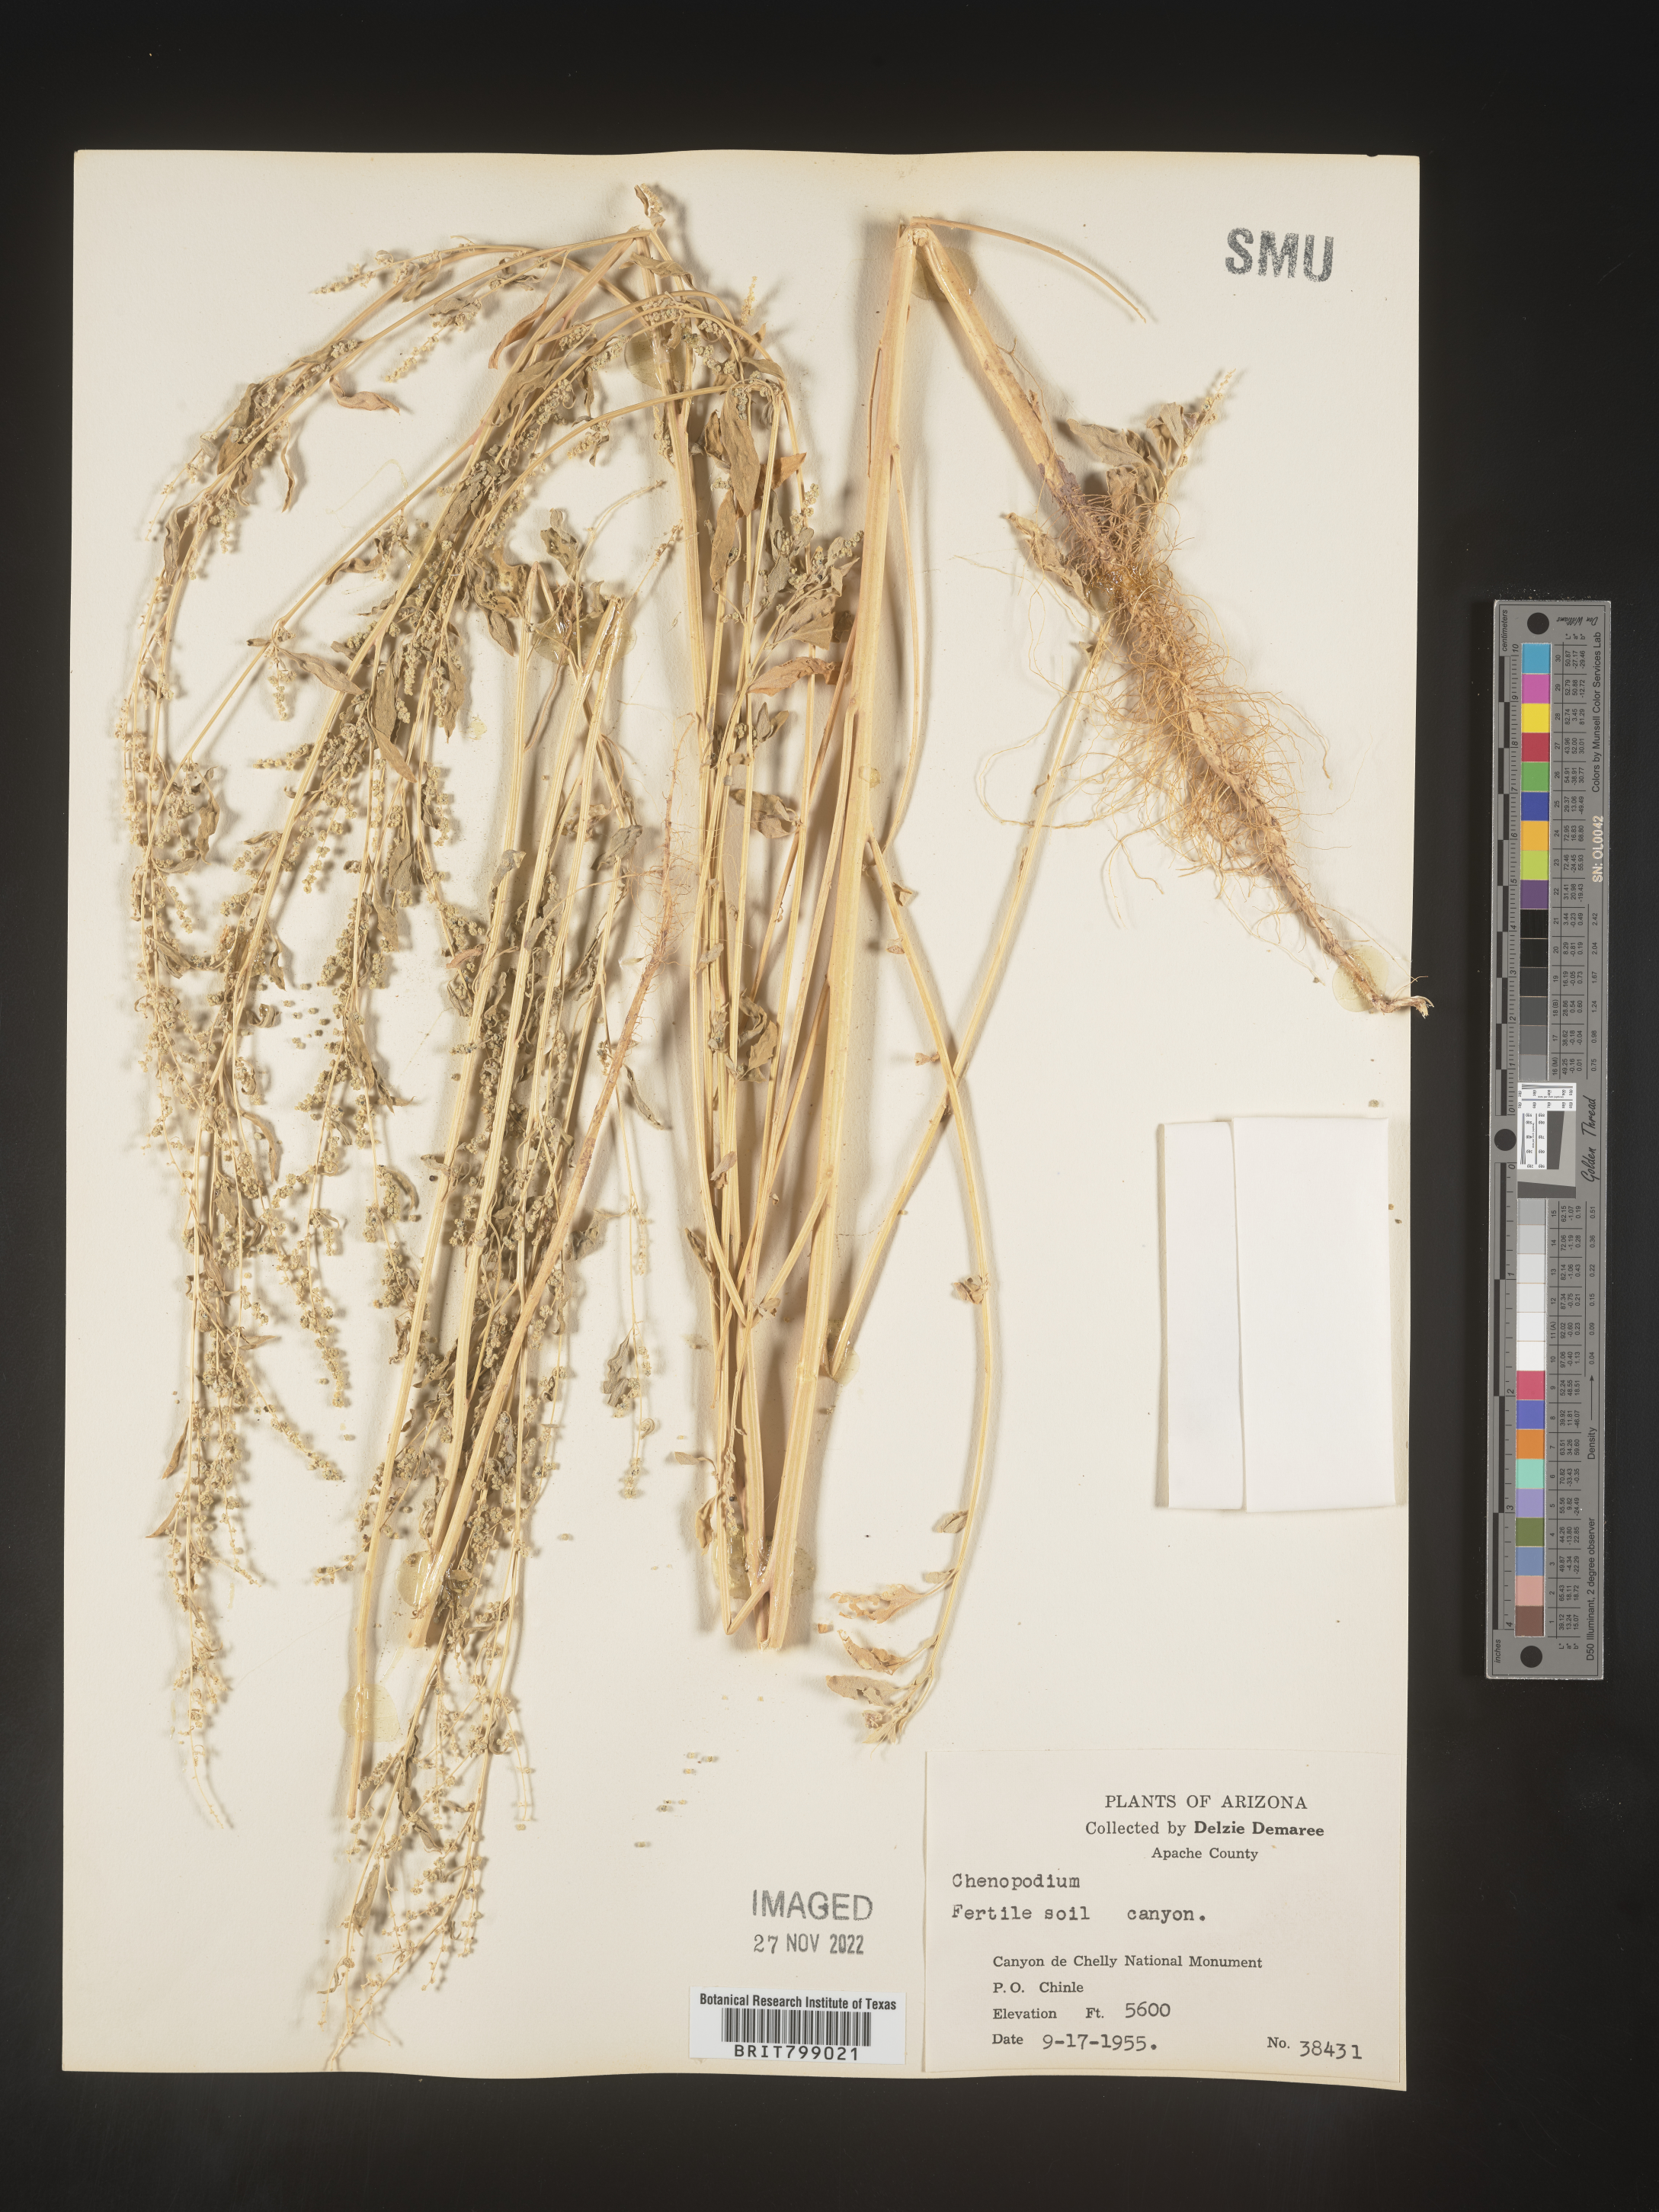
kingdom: Plantae
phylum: Tracheophyta
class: Magnoliopsida
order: Caryophyllales
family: Amaranthaceae
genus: Chenopodium
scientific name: Chenopodium
